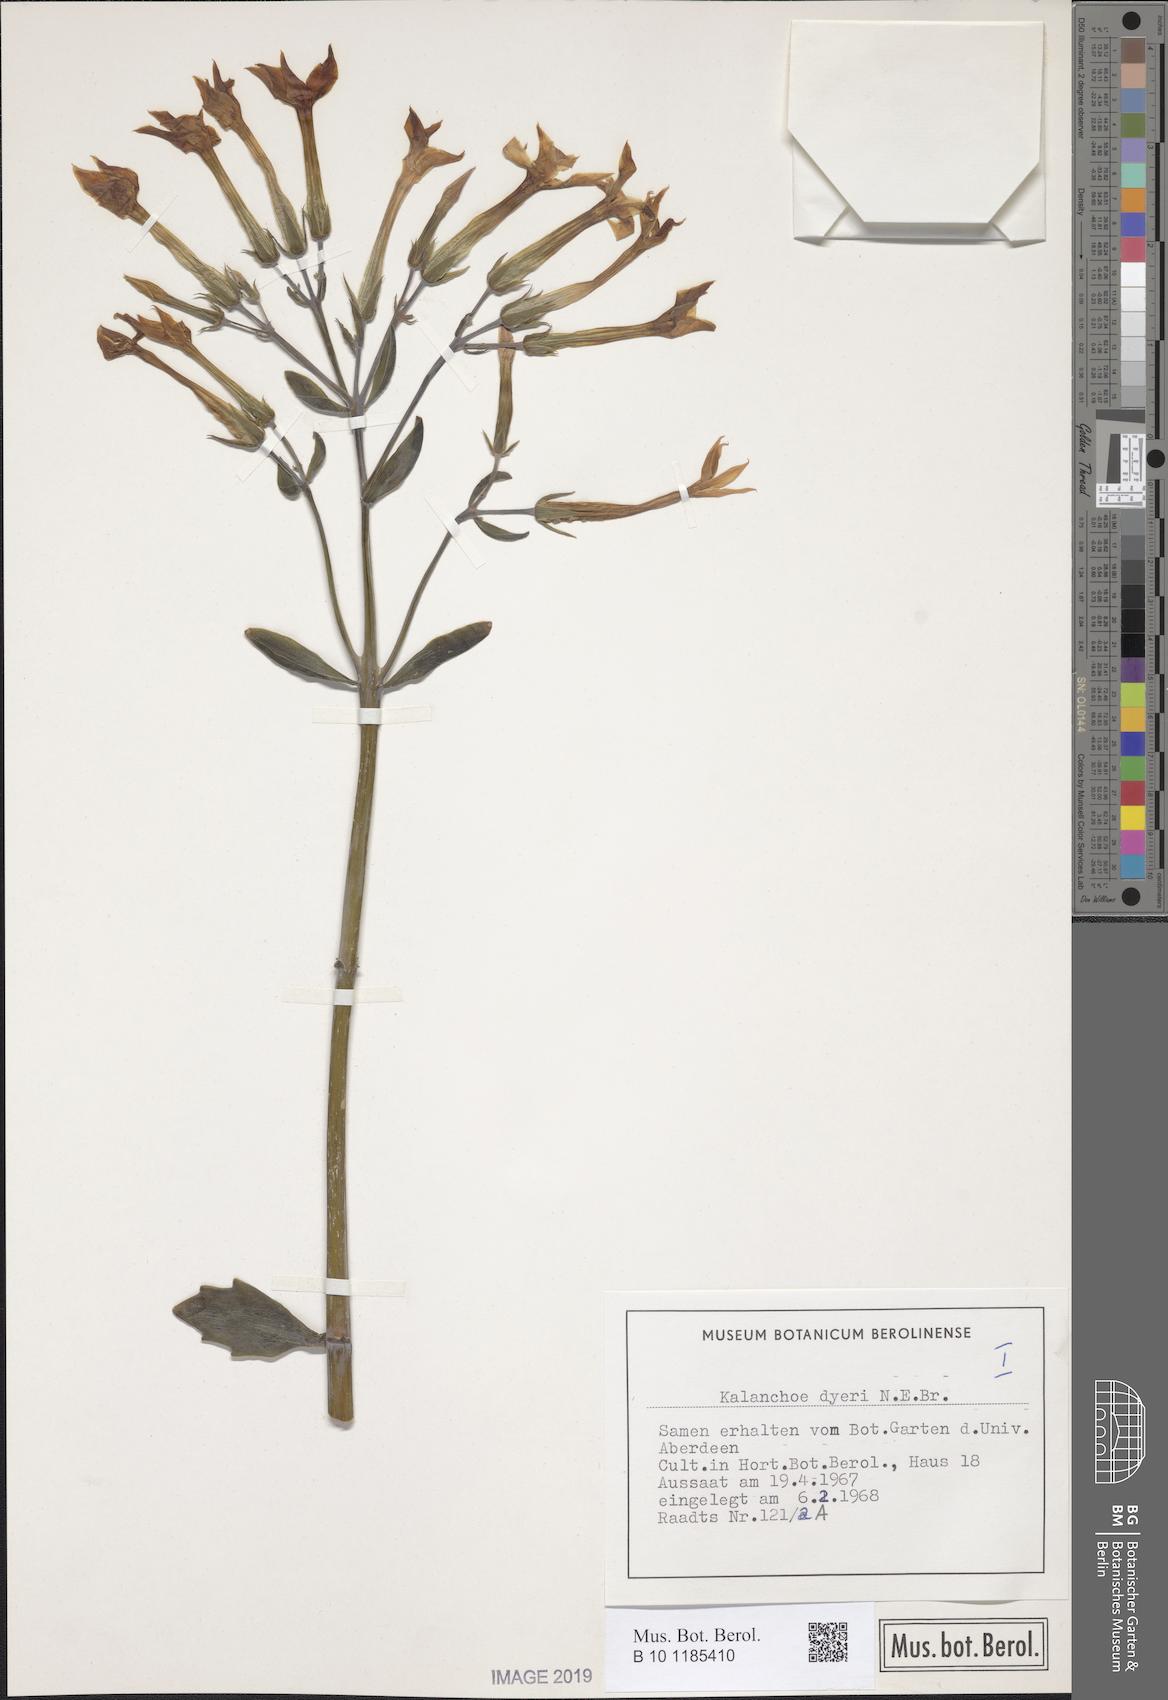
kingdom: Plantae
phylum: Tracheophyta
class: Magnoliopsida
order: Saxifragales
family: Crassulaceae
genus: Kalanchoe
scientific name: Kalanchoe dyeri
